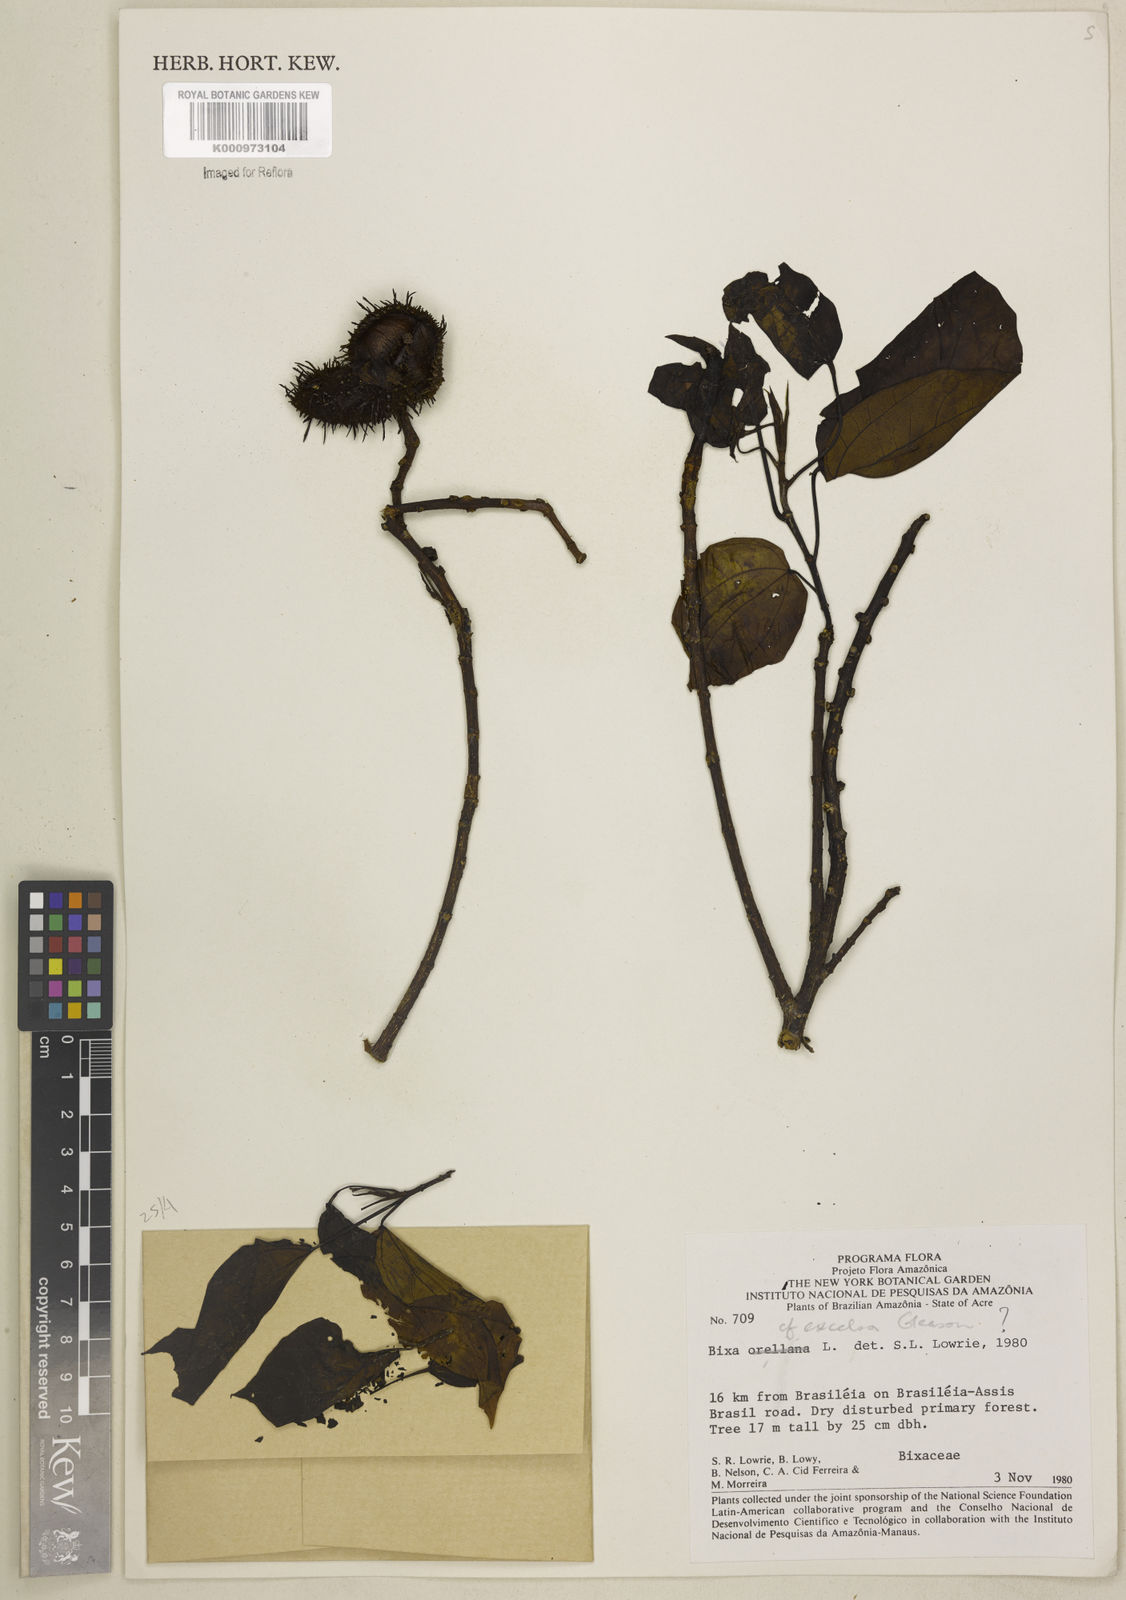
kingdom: Plantae
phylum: Tracheophyta
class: Magnoliopsida
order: Malvales
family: Bixaceae
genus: Bixa
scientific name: Bixa excelsa
